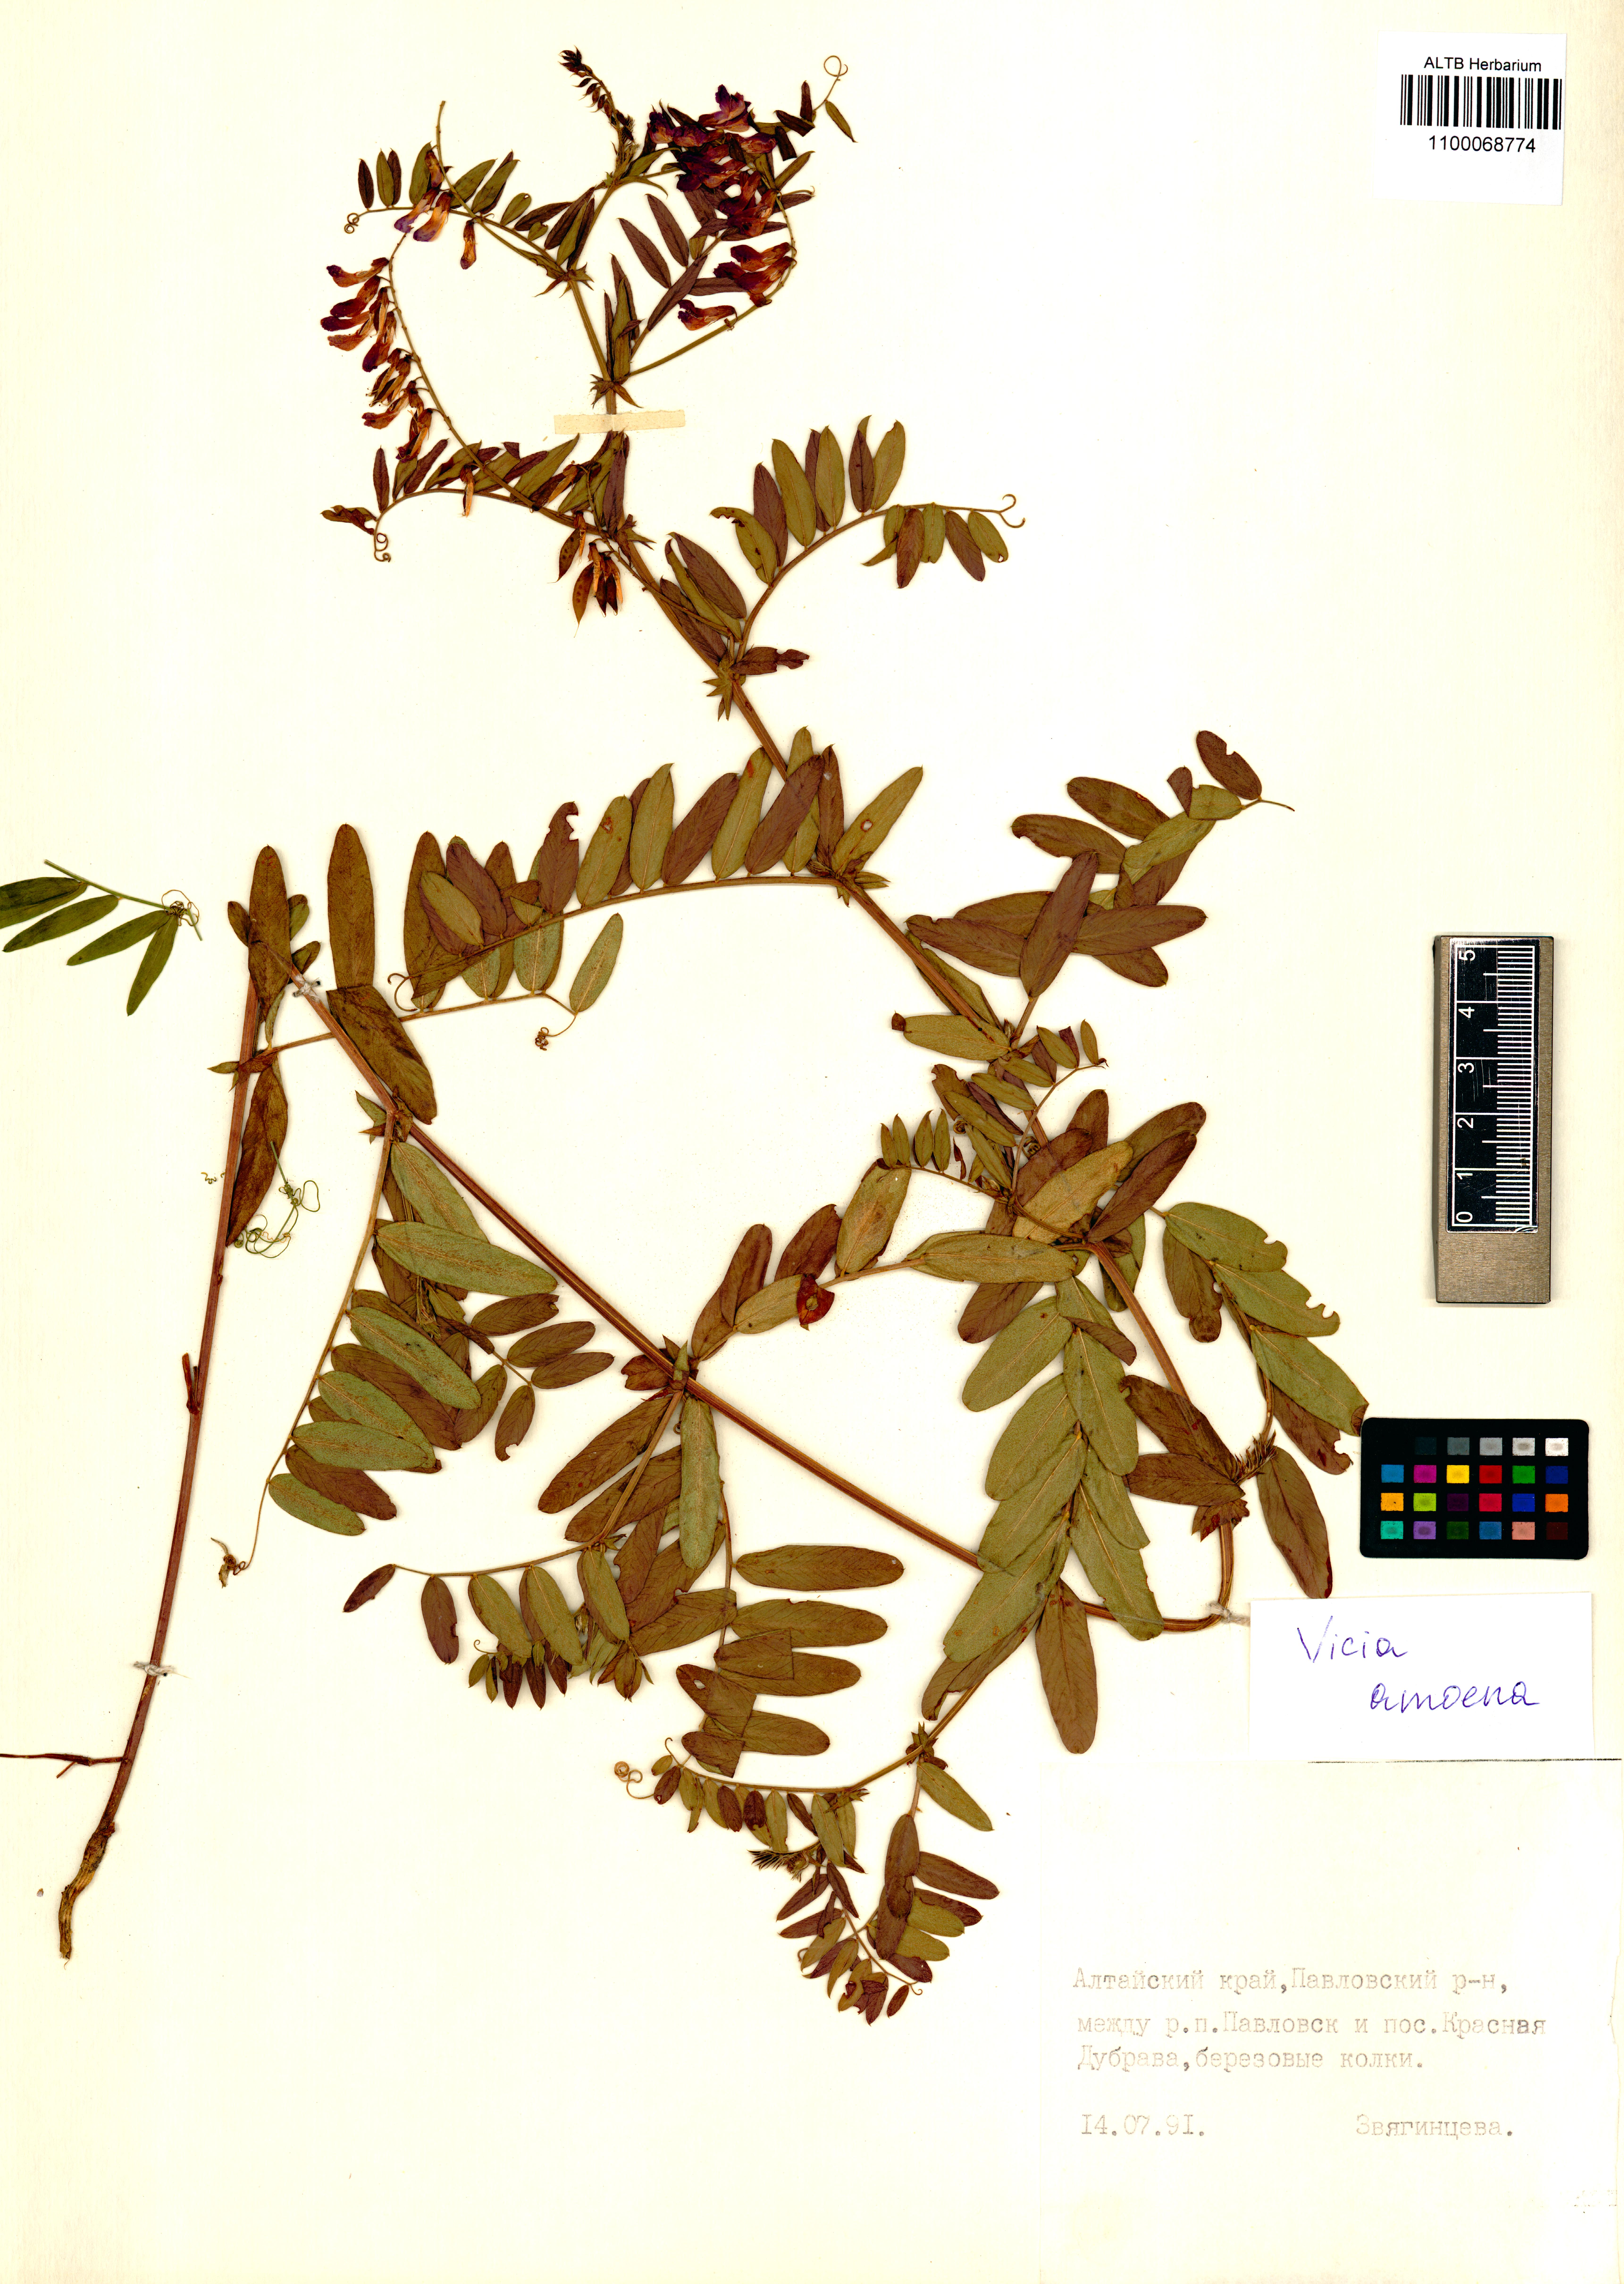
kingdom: Plantae
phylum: Tracheophyta
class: Magnoliopsida
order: Fabales
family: Fabaceae
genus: Vicia
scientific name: Vicia amoena
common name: Cheder ebs
